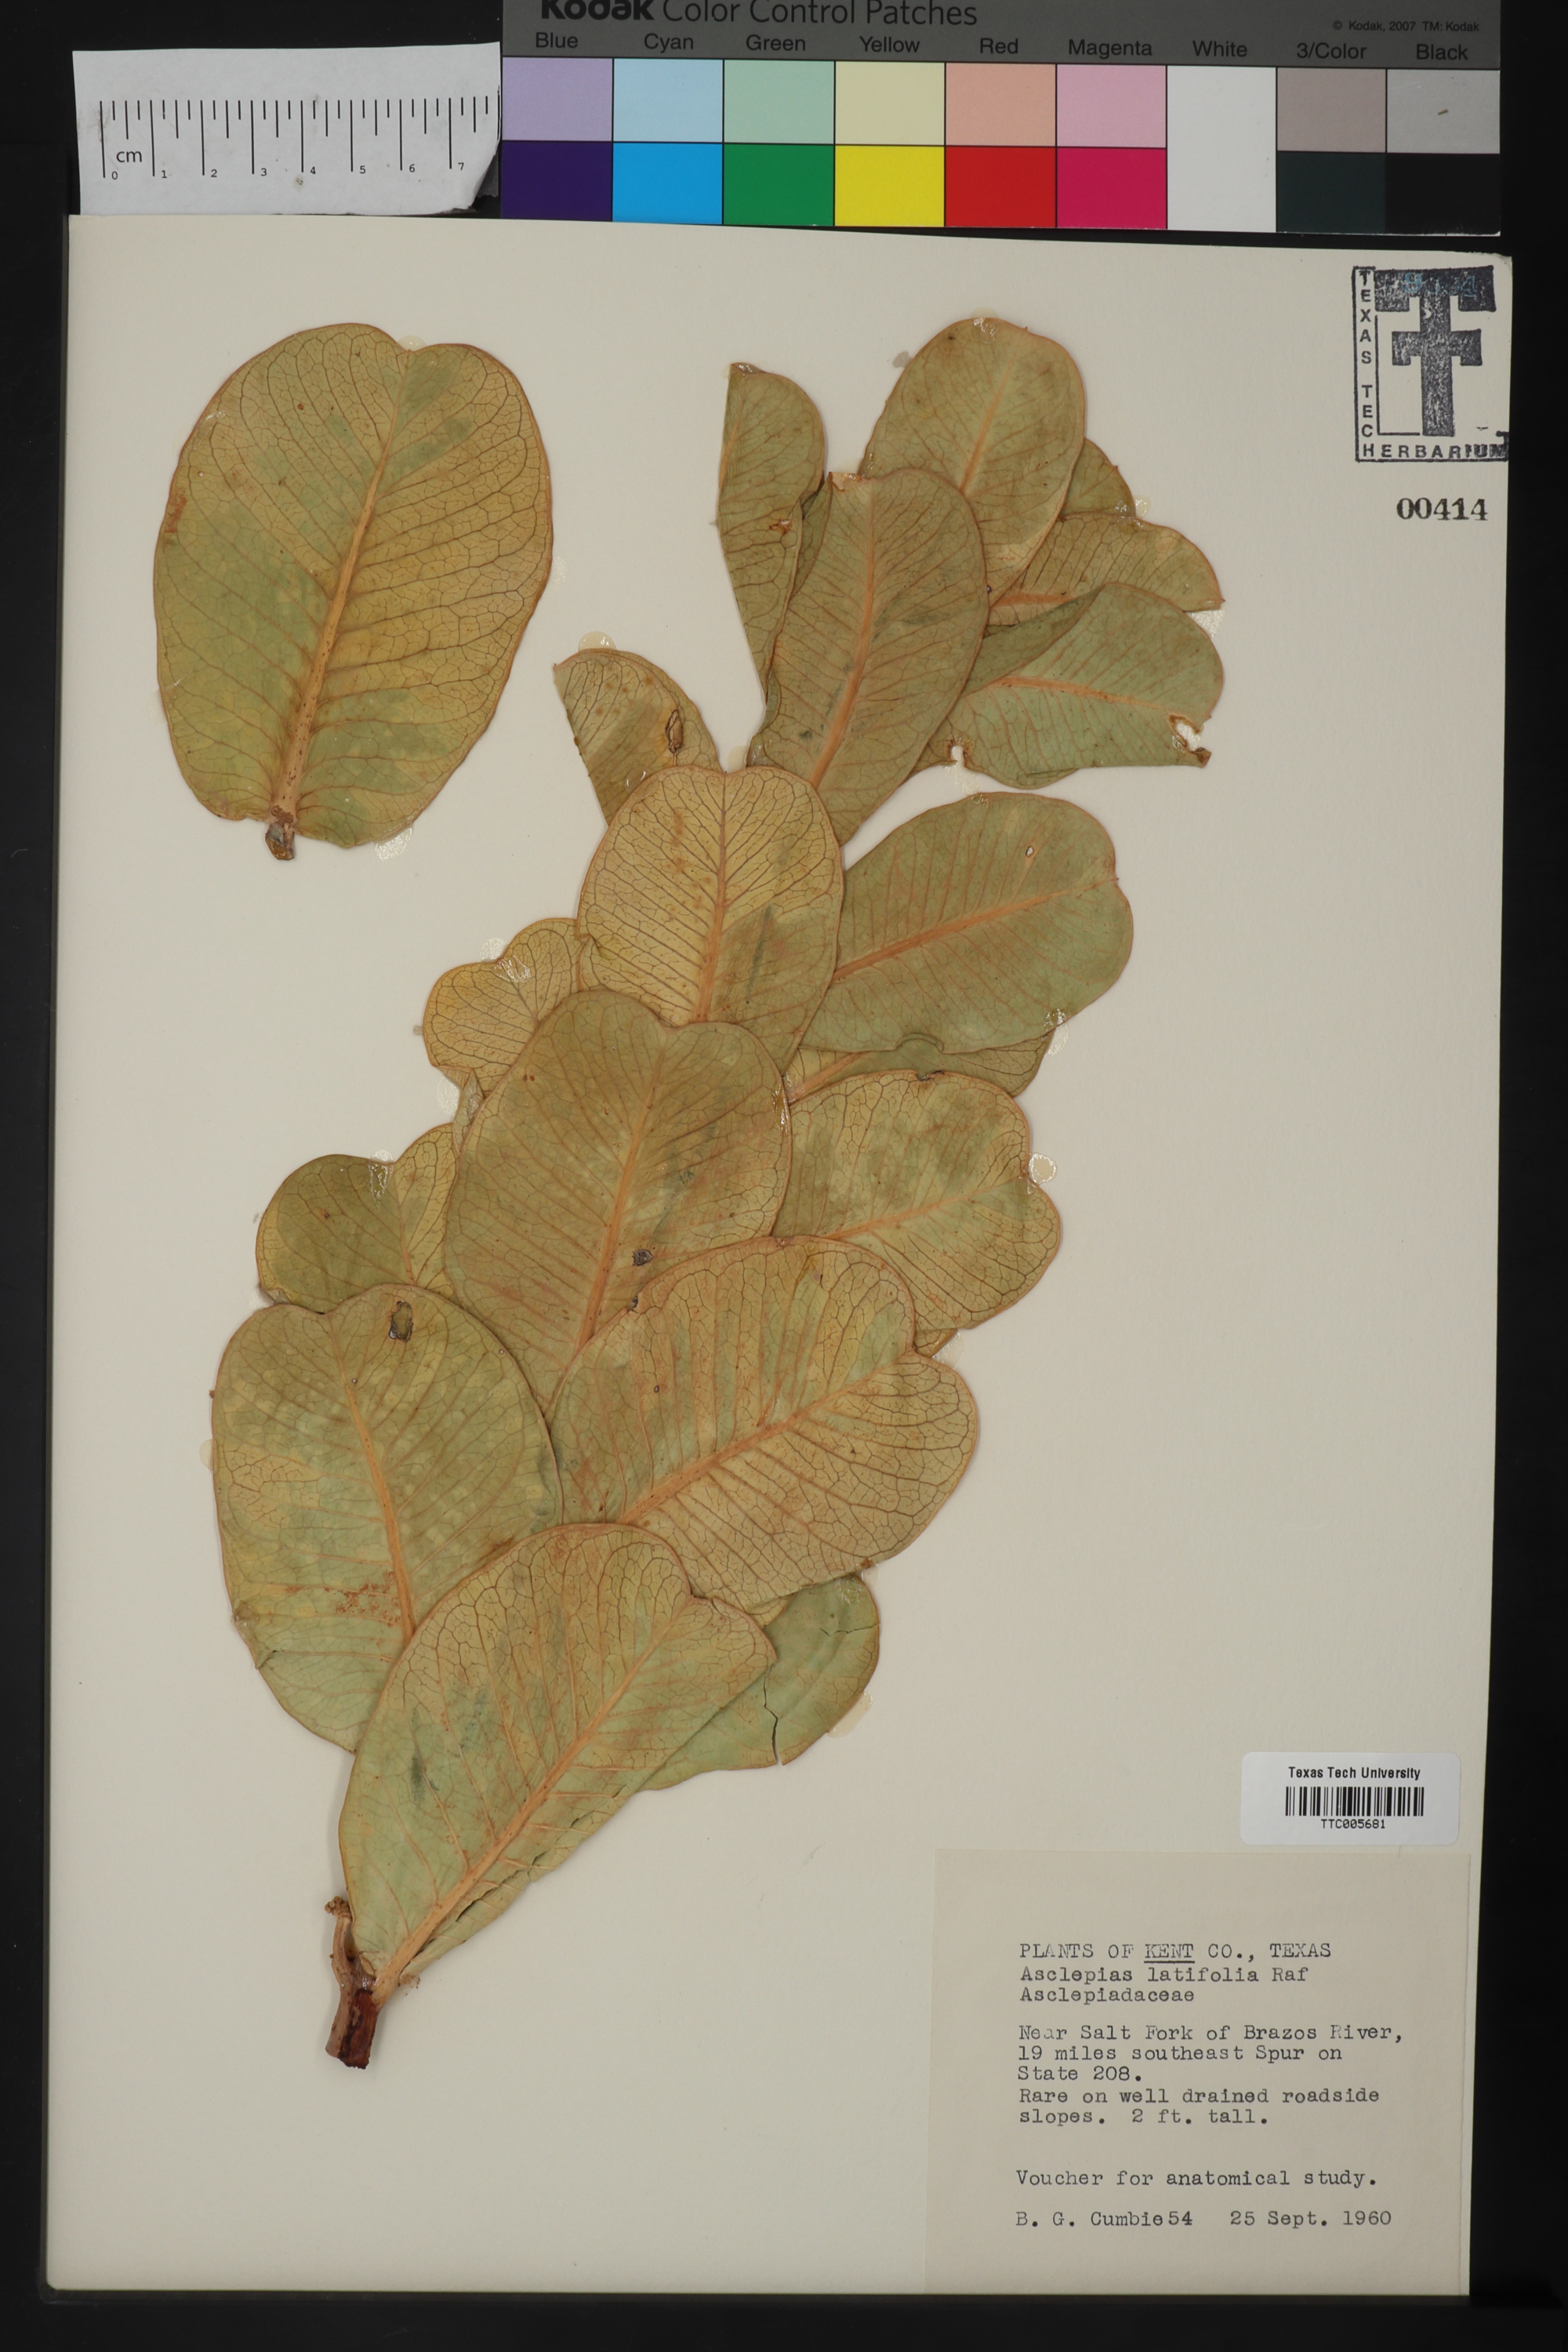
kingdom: Plantae
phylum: Tracheophyta
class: Magnoliopsida
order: Gentianales
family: Apocynaceae
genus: Asclepias
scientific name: Asclepias latifolia
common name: Broadleaf milkweed
